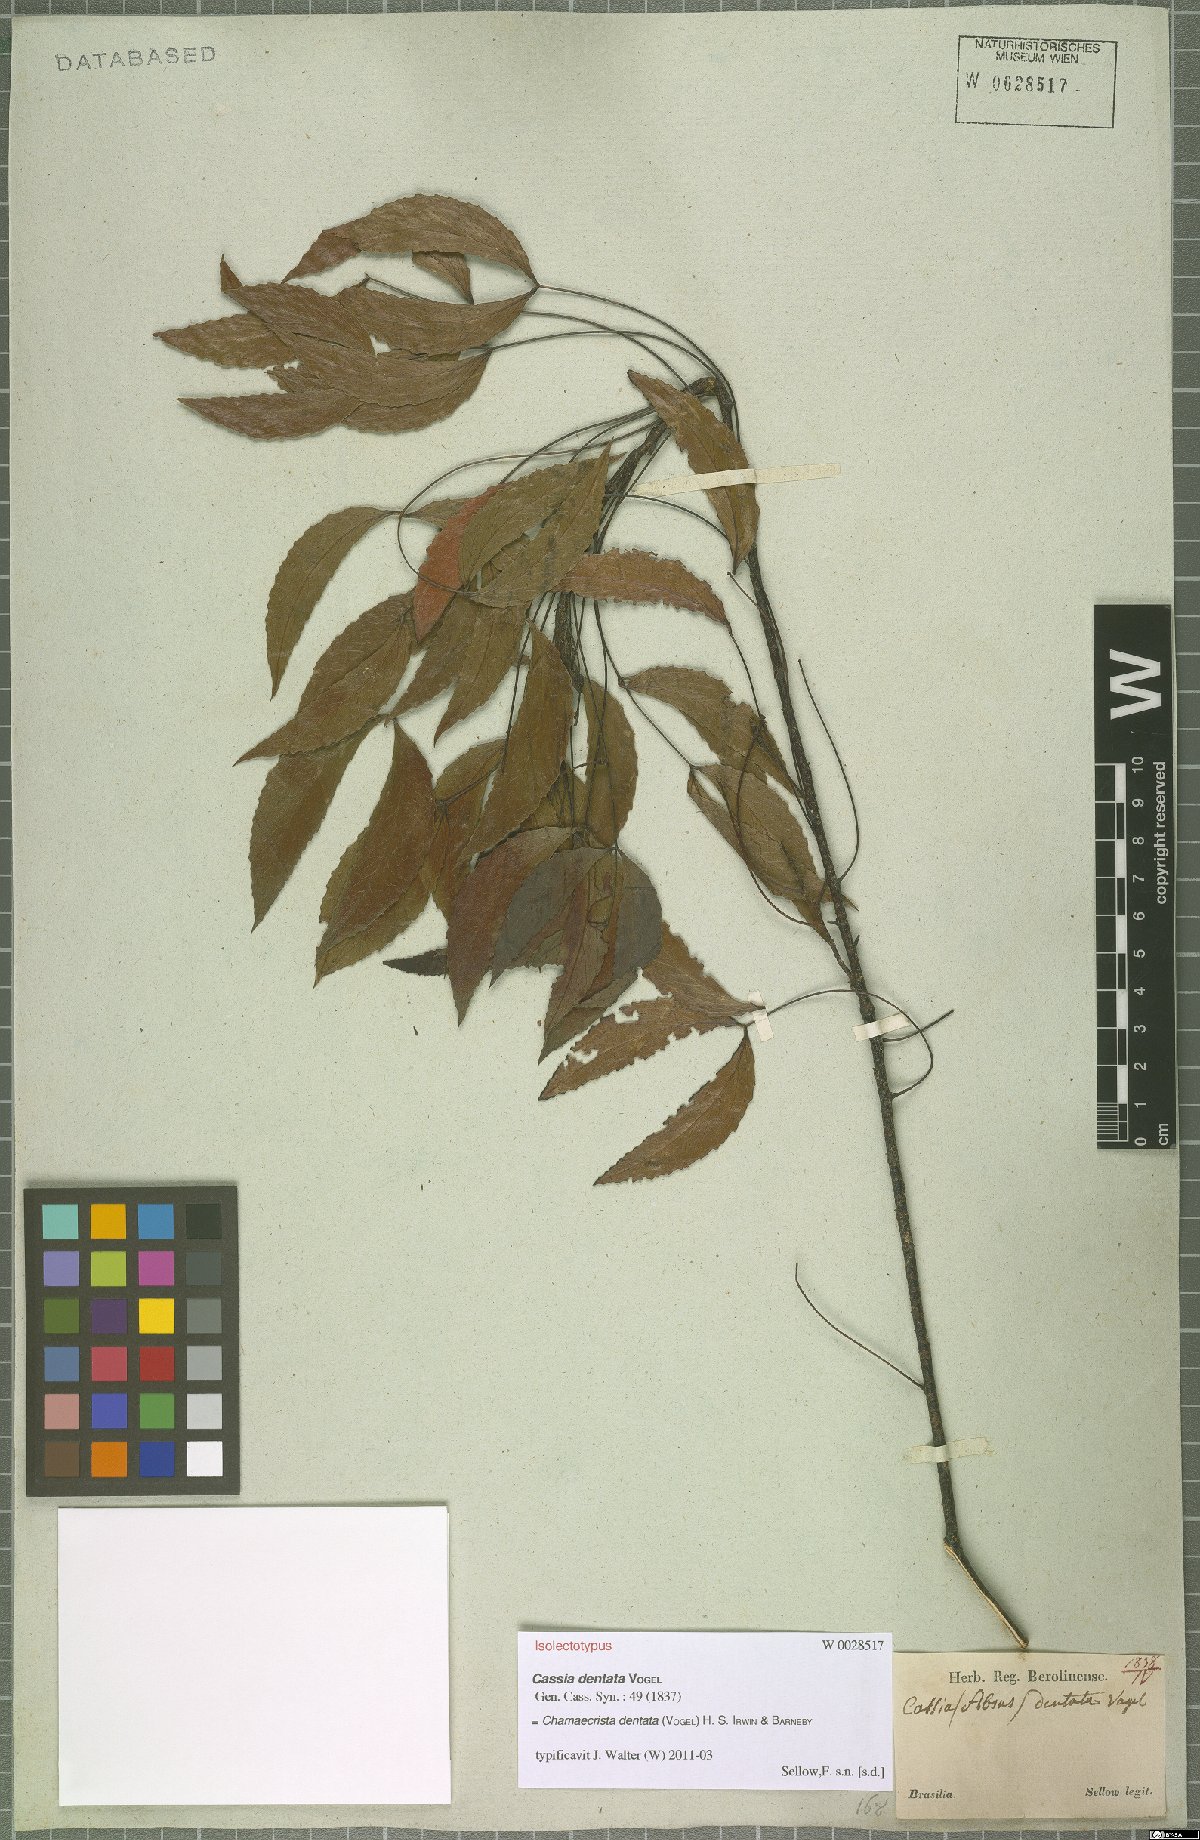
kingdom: Plantae
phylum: Tracheophyta
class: Magnoliopsida
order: Fabales
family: Fabaceae
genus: Chamaecrista
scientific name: Chamaecrista dentata
